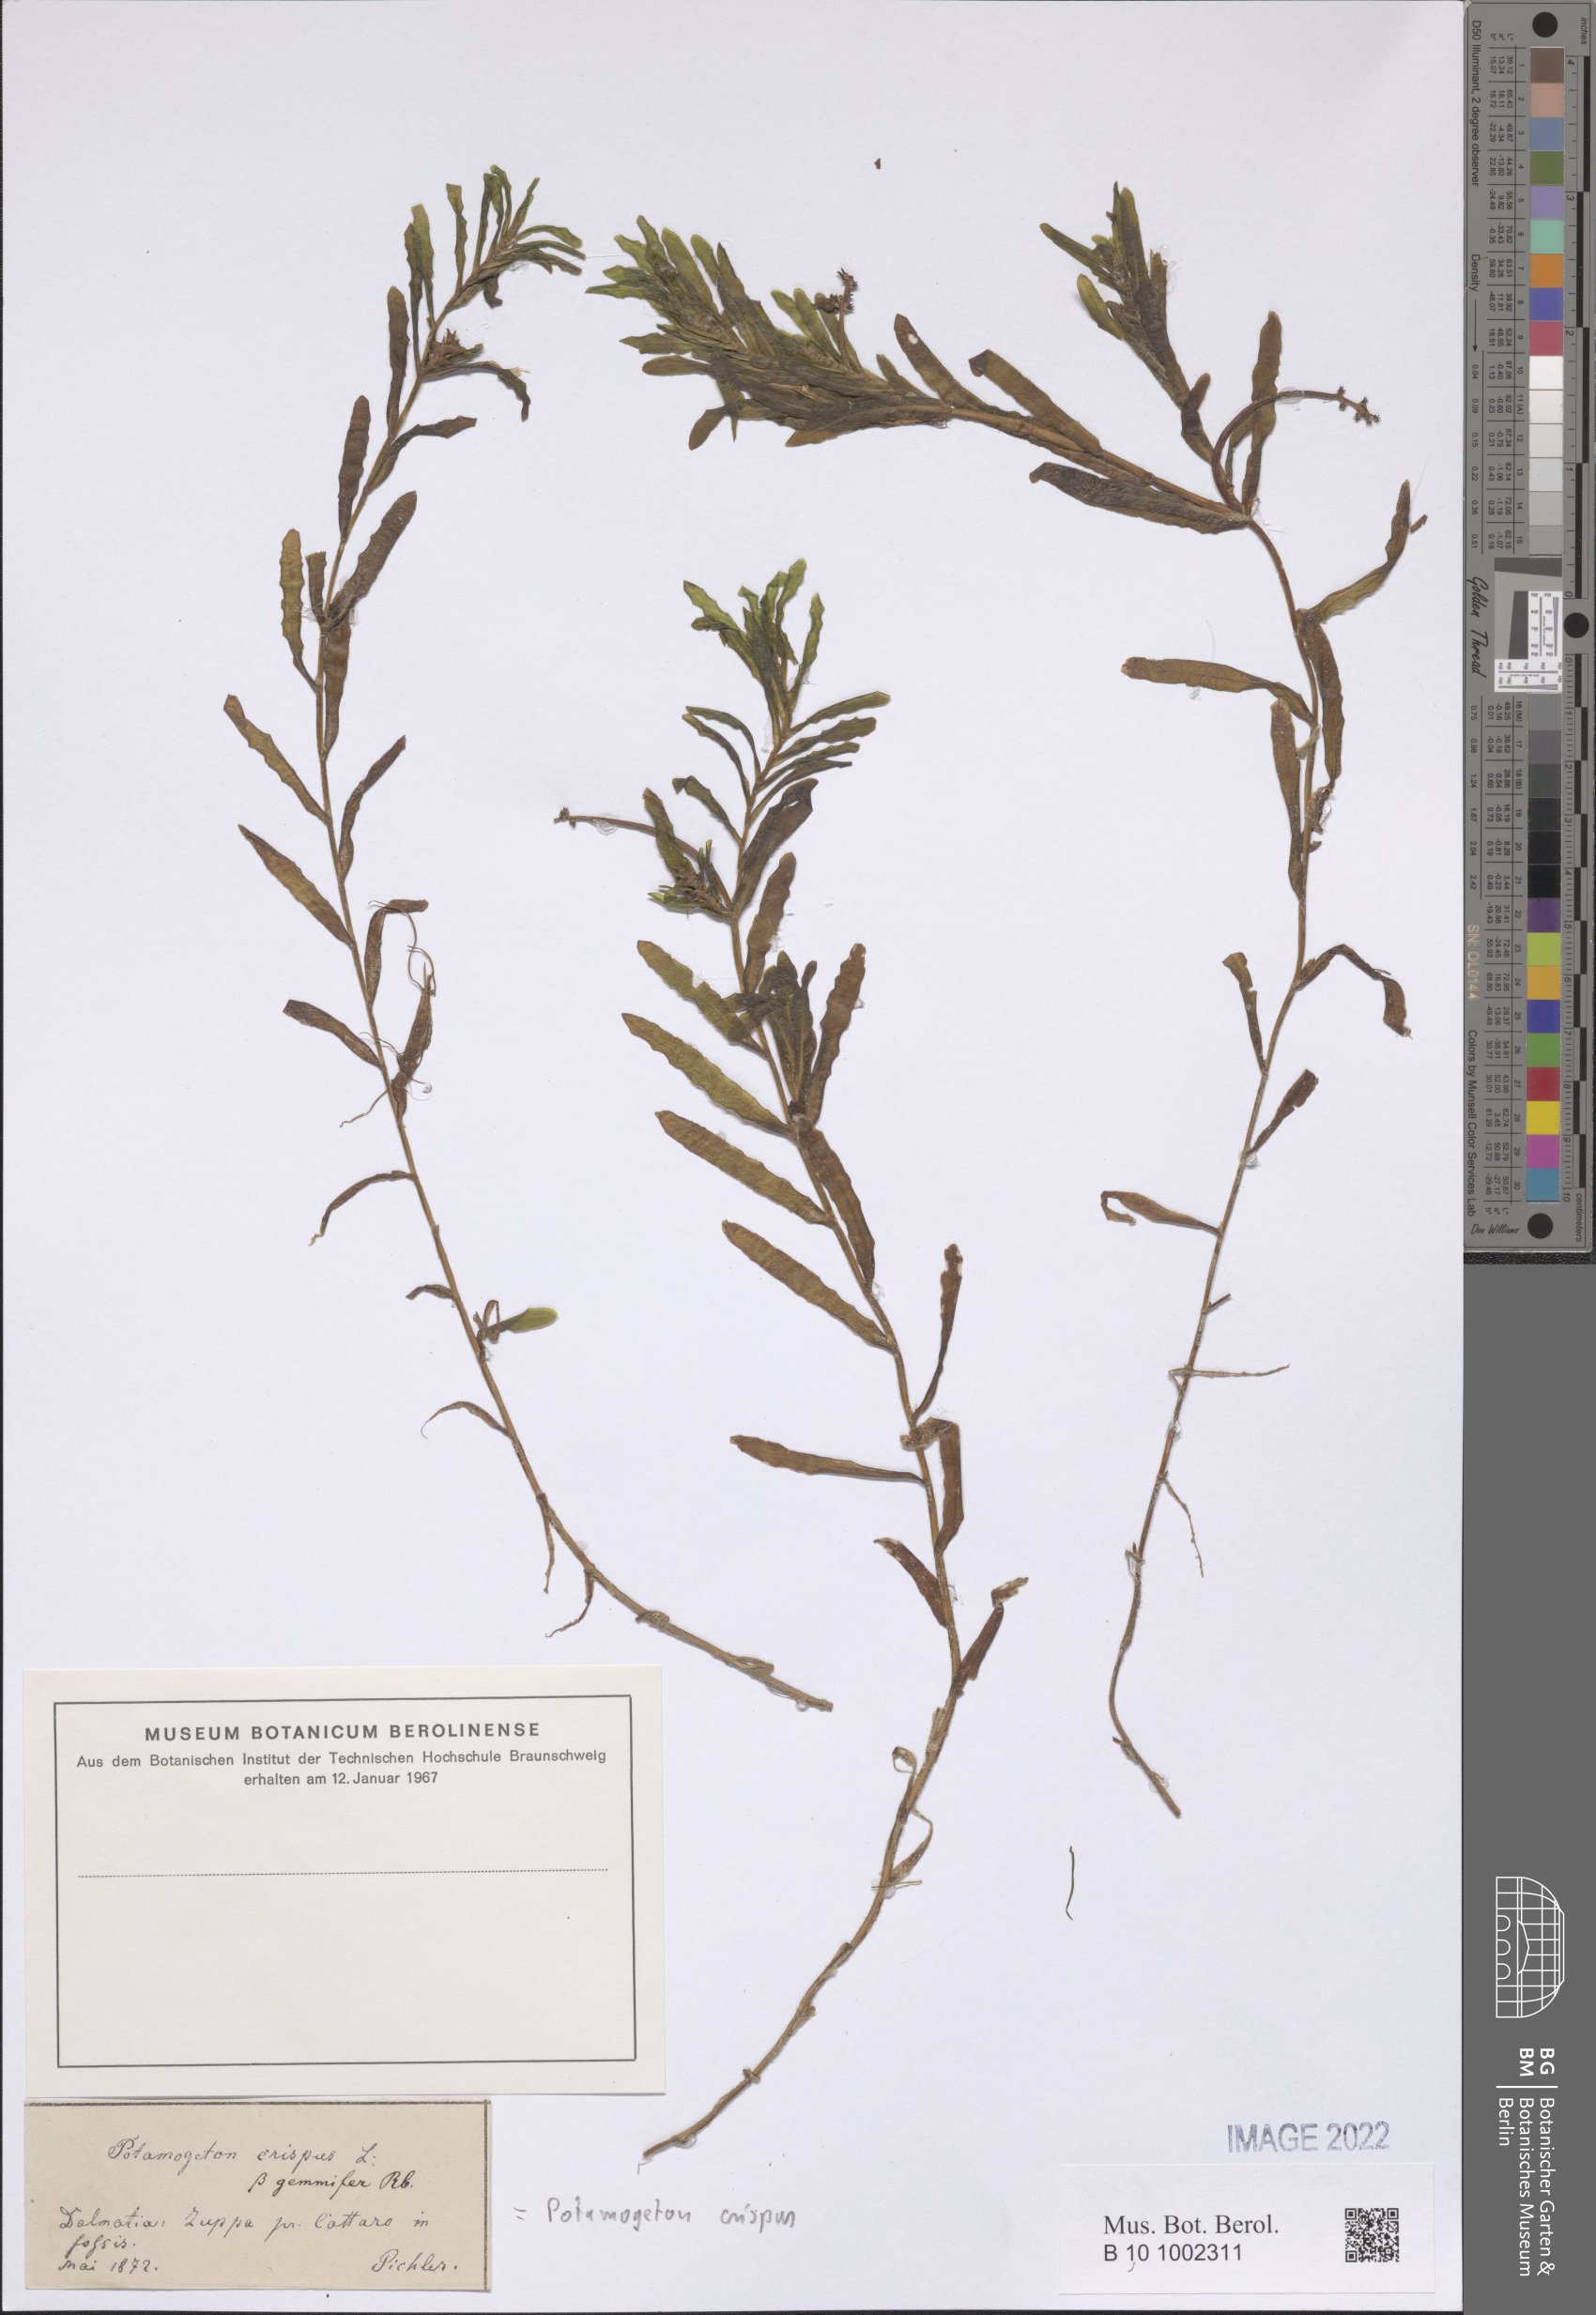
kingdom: Plantae
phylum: Tracheophyta
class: Liliopsida
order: Alismatales
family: Potamogetonaceae
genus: Potamogeton
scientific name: Potamogeton crispus
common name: Curled pondweed
